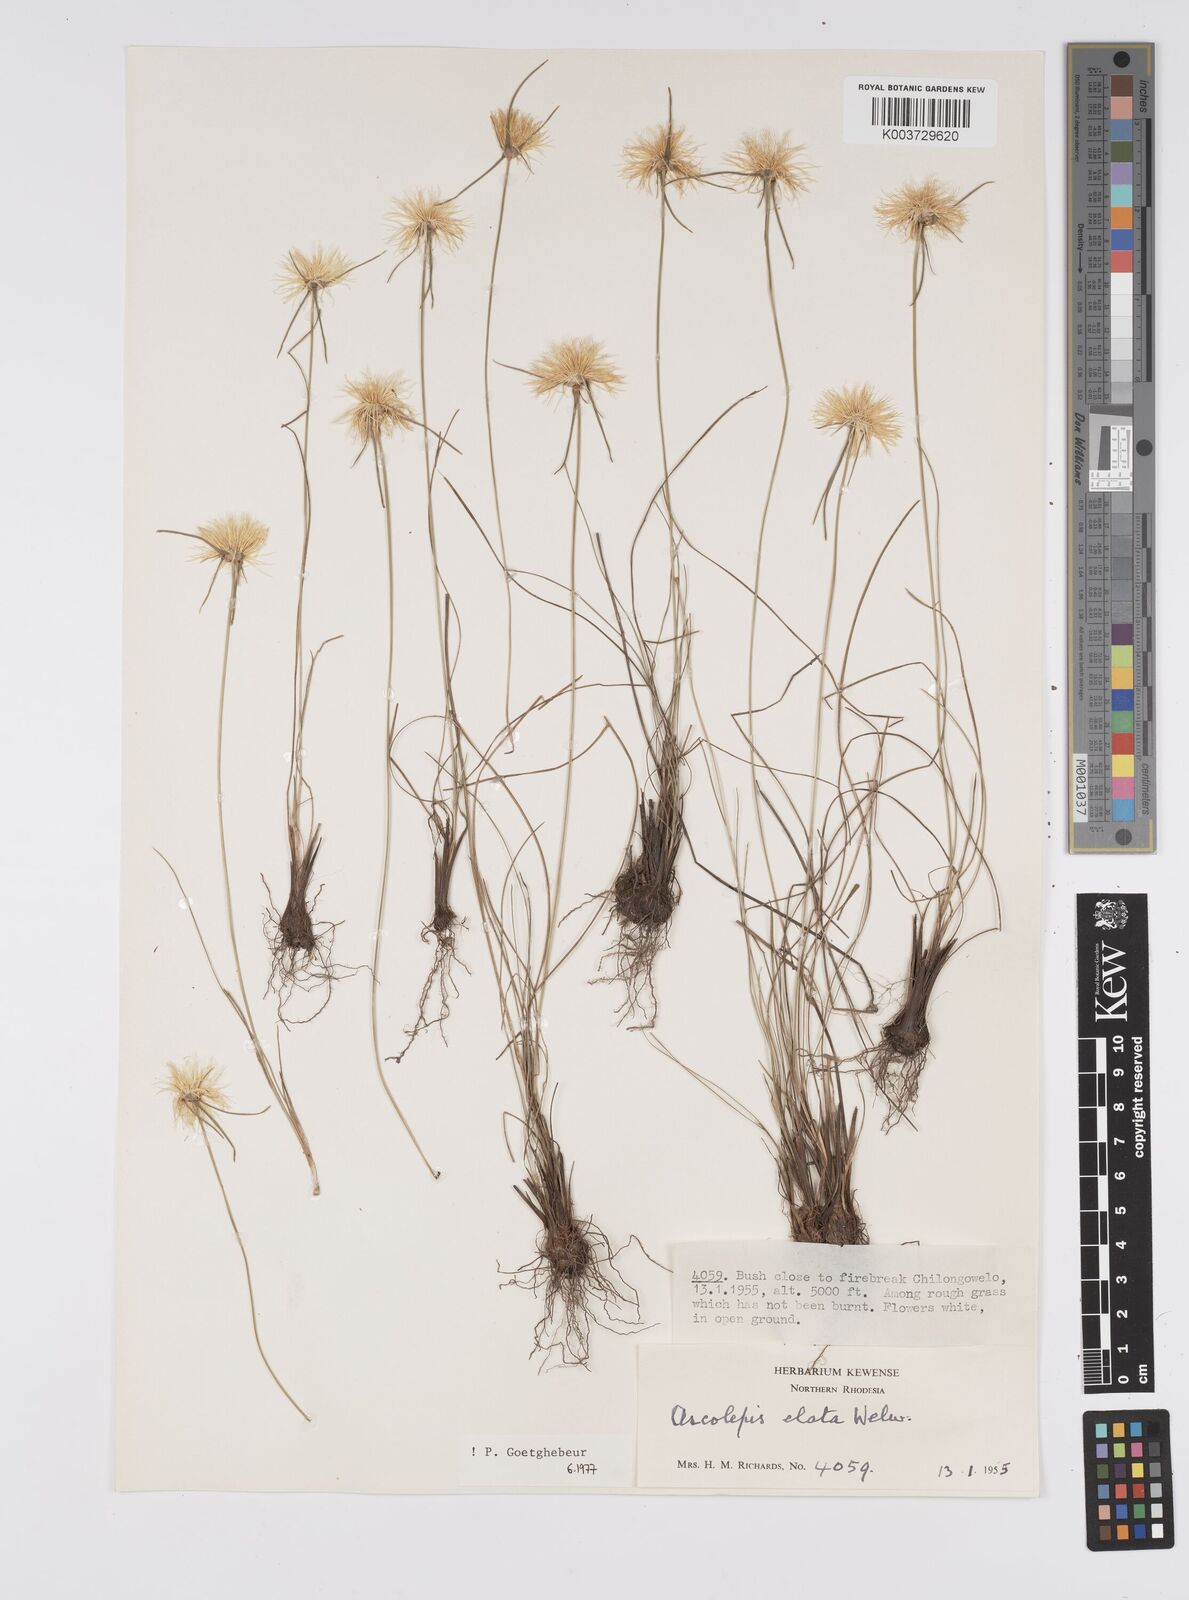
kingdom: Plantae
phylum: Tracheophyta
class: Liliopsida
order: Poales
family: Cyperaceae
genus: Cyperus
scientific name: Cyperus
